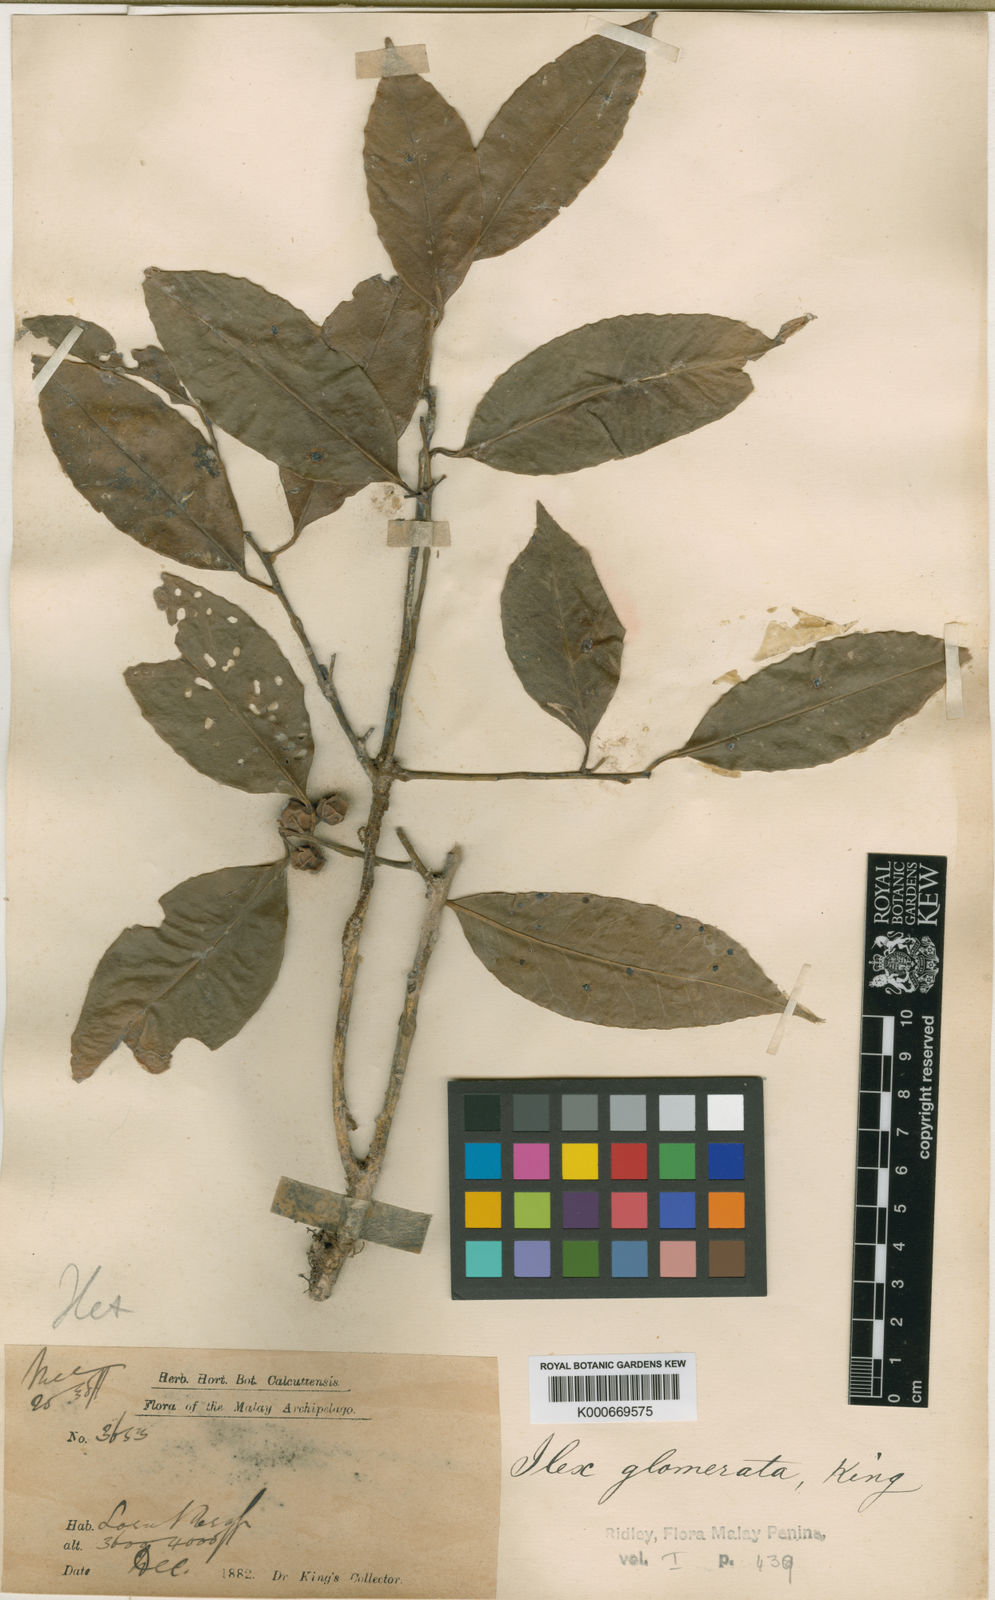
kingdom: Plantae
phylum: Tracheophyta
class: Magnoliopsida
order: Aquifoliales
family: Aquifoliaceae
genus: Ilex
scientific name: Ilex glomerata
